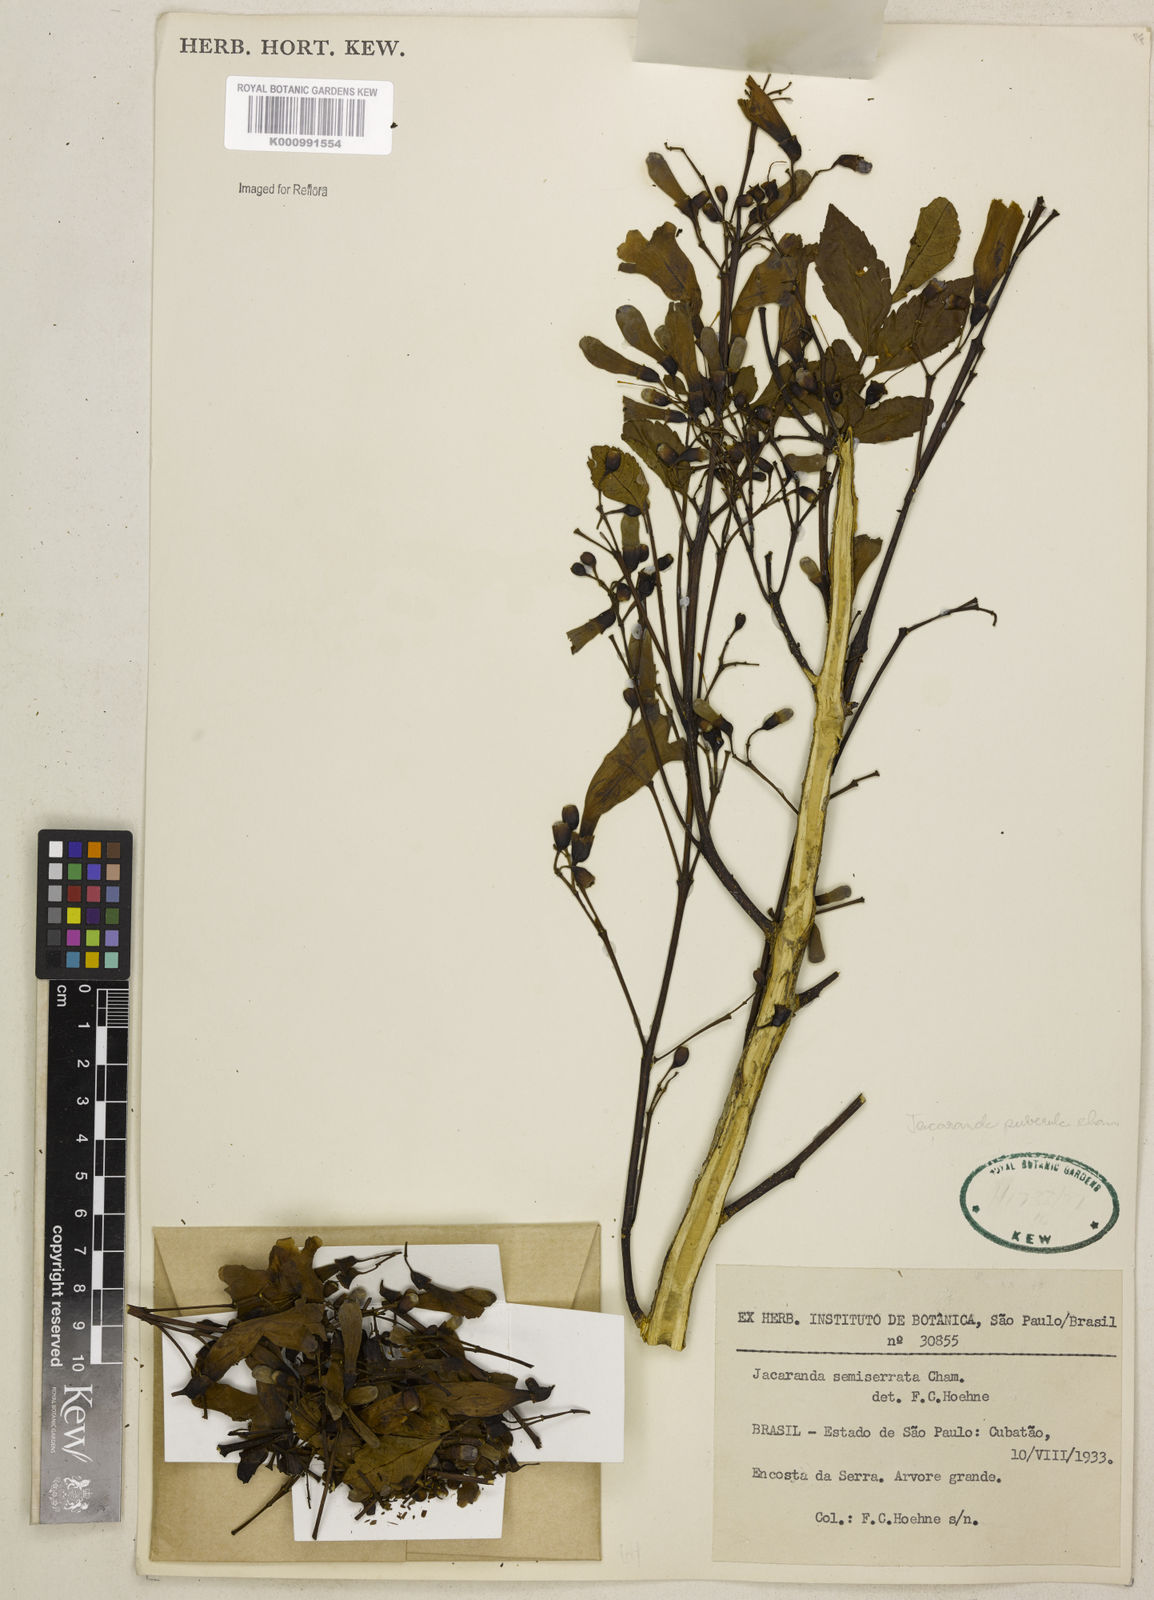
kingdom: Plantae
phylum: Tracheophyta
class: Magnoliopsida
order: Lamiales
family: Bignoniaceae
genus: Jacaranda
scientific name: Jacaranda puberula
